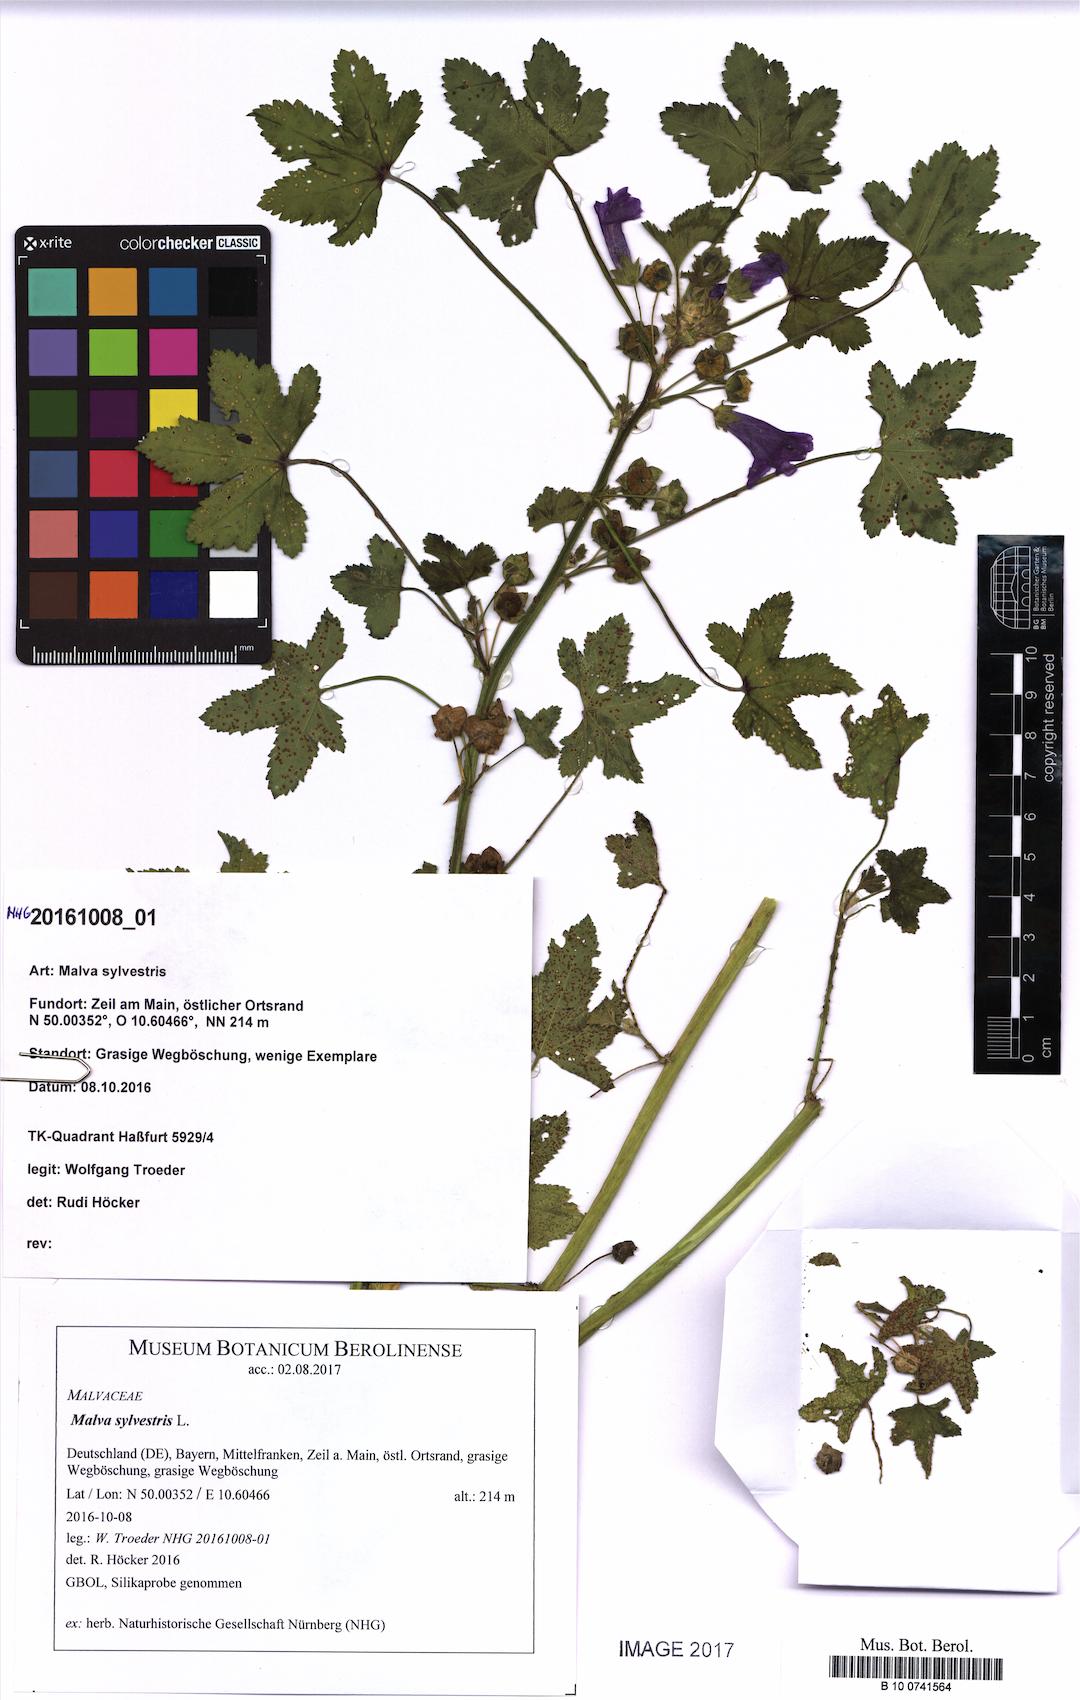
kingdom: Plantae
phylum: Tracheophyta
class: Magnoliopsida
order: Malvales
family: Malvaceae
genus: Malva
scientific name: Malva sylvestris
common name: Common mallow
